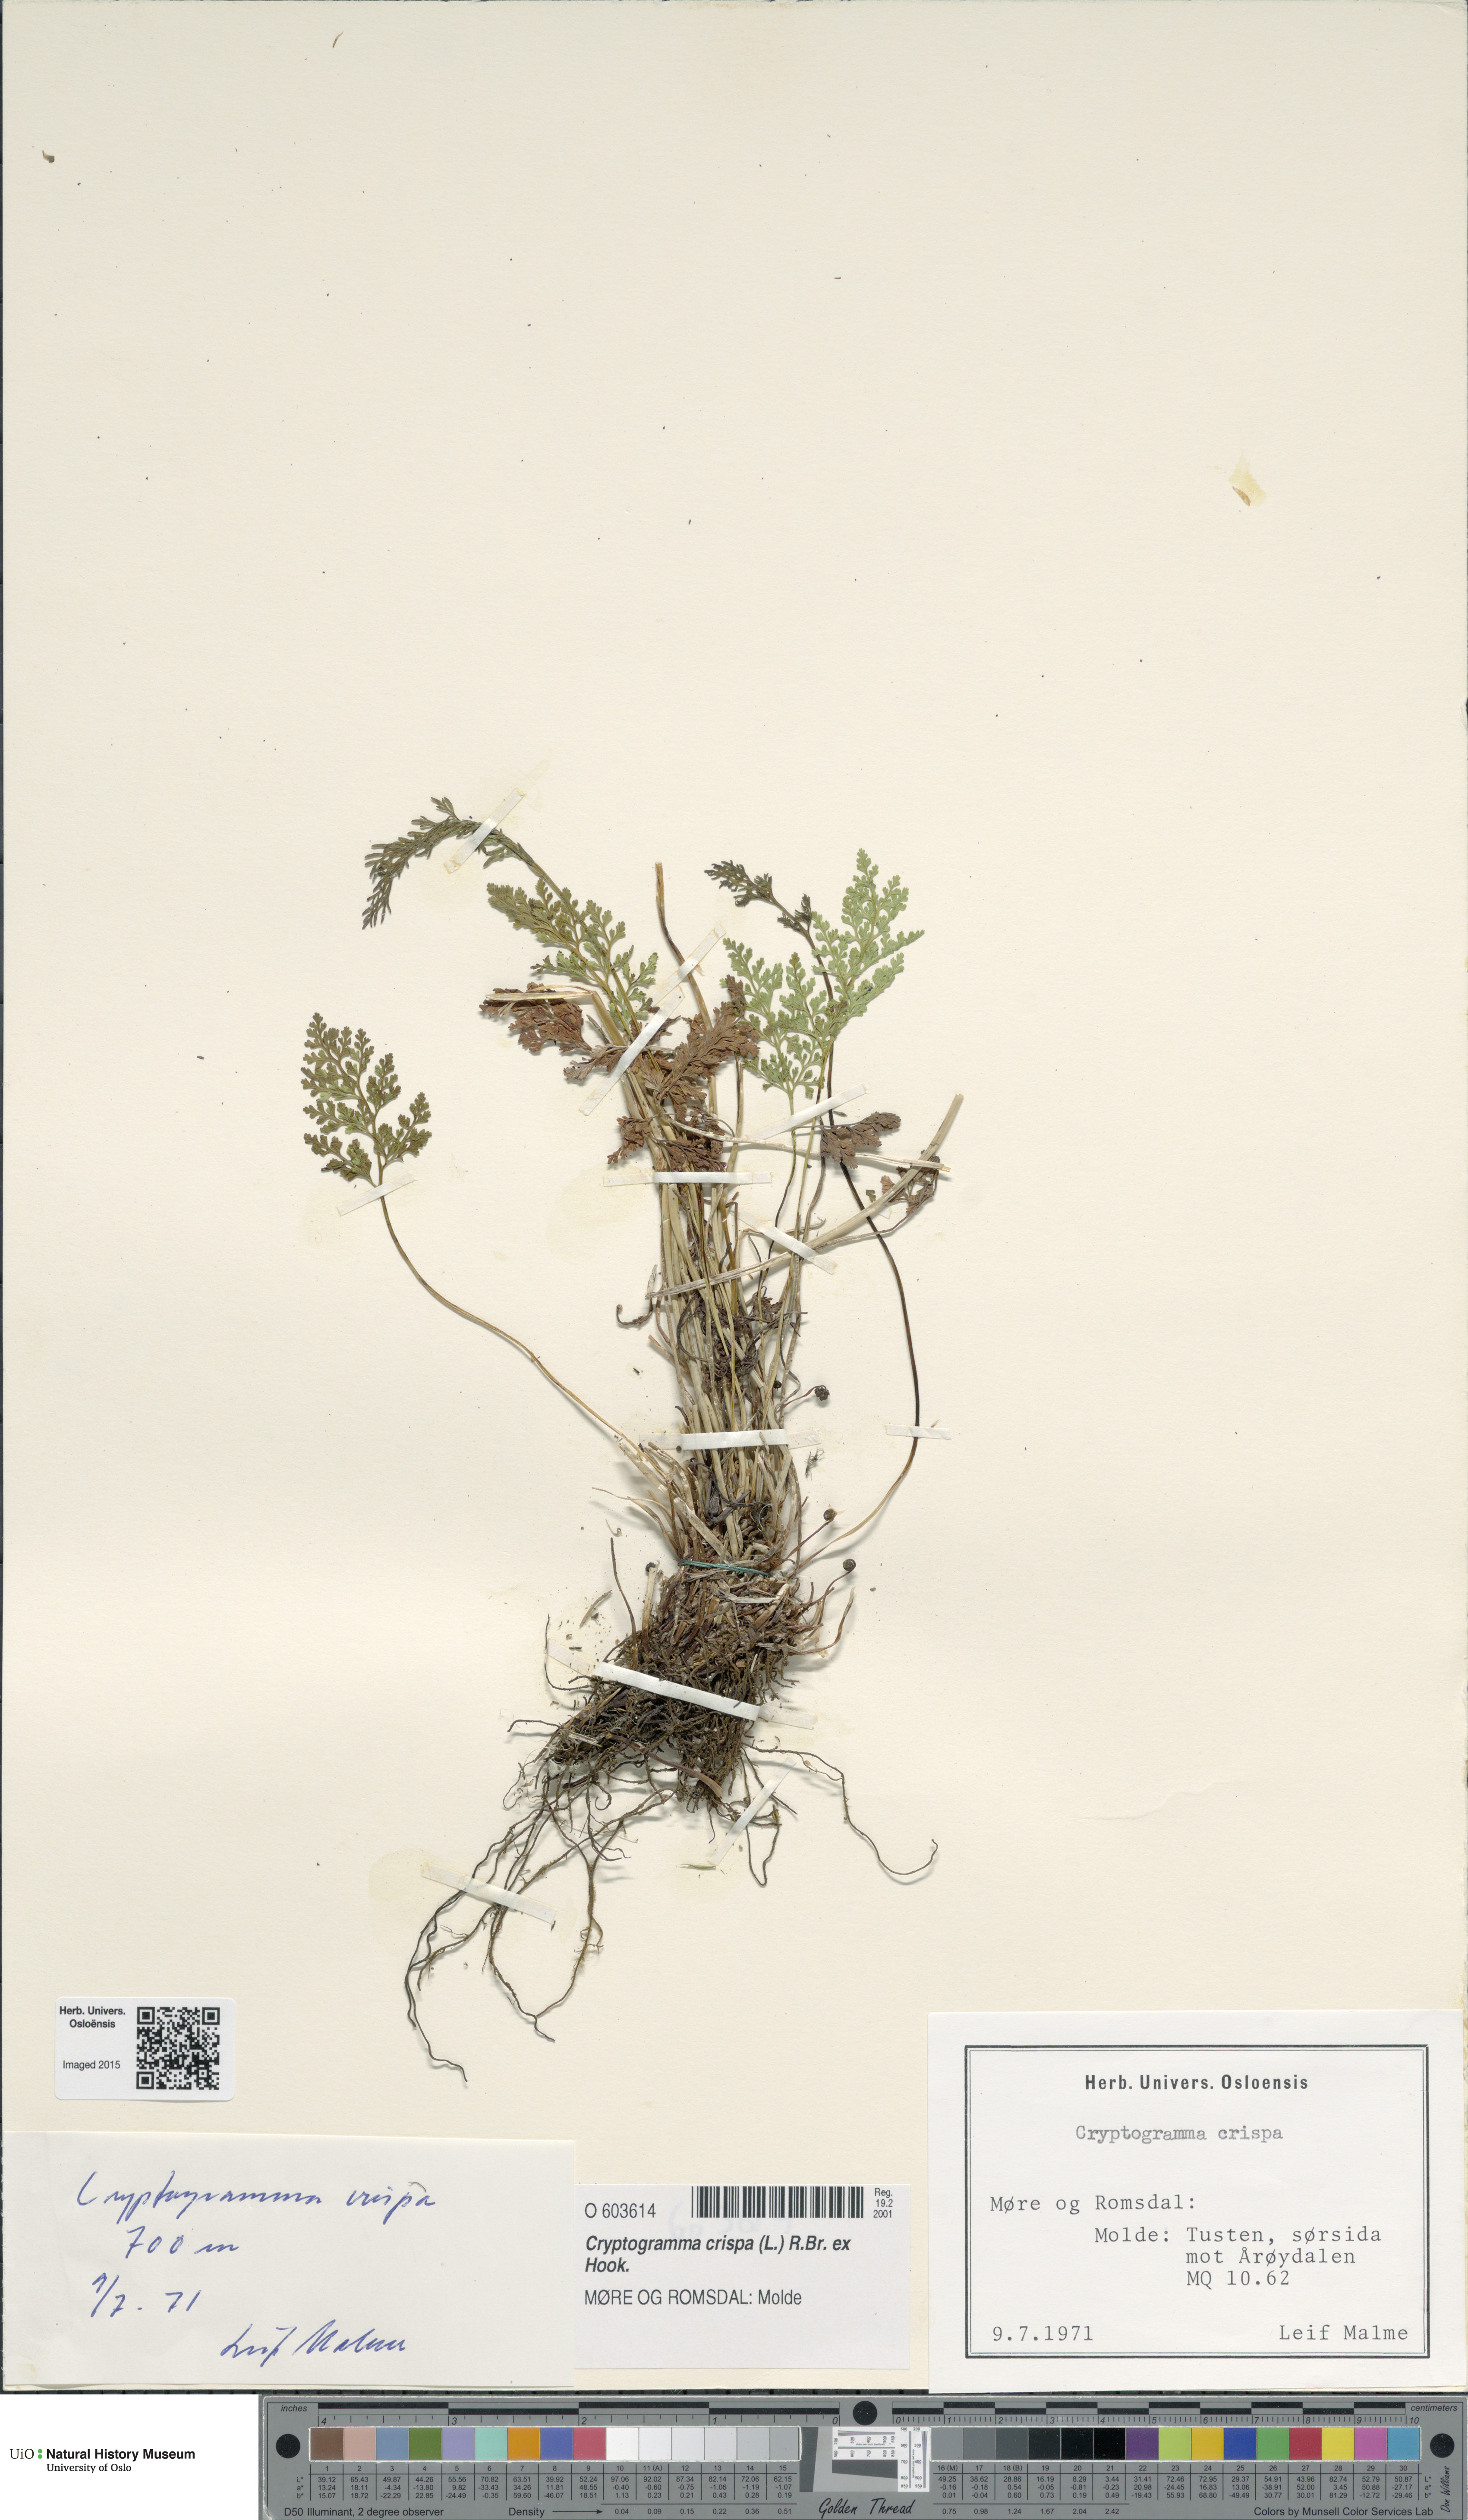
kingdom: Plantae
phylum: Tracheophyta
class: Polypodiopsida
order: Polypodiales
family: Pteridaceae
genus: Cryptogramma
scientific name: Cryptogramma crispa
